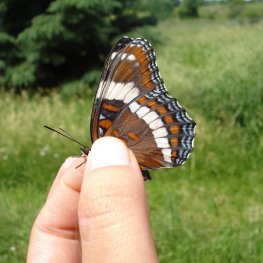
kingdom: Animalia
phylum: Arthropoda
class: Insecta
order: Lepidoptera
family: Nymphalidae
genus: Limenitis
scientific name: Limenitis arthemis
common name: Red-spotted Admiral
